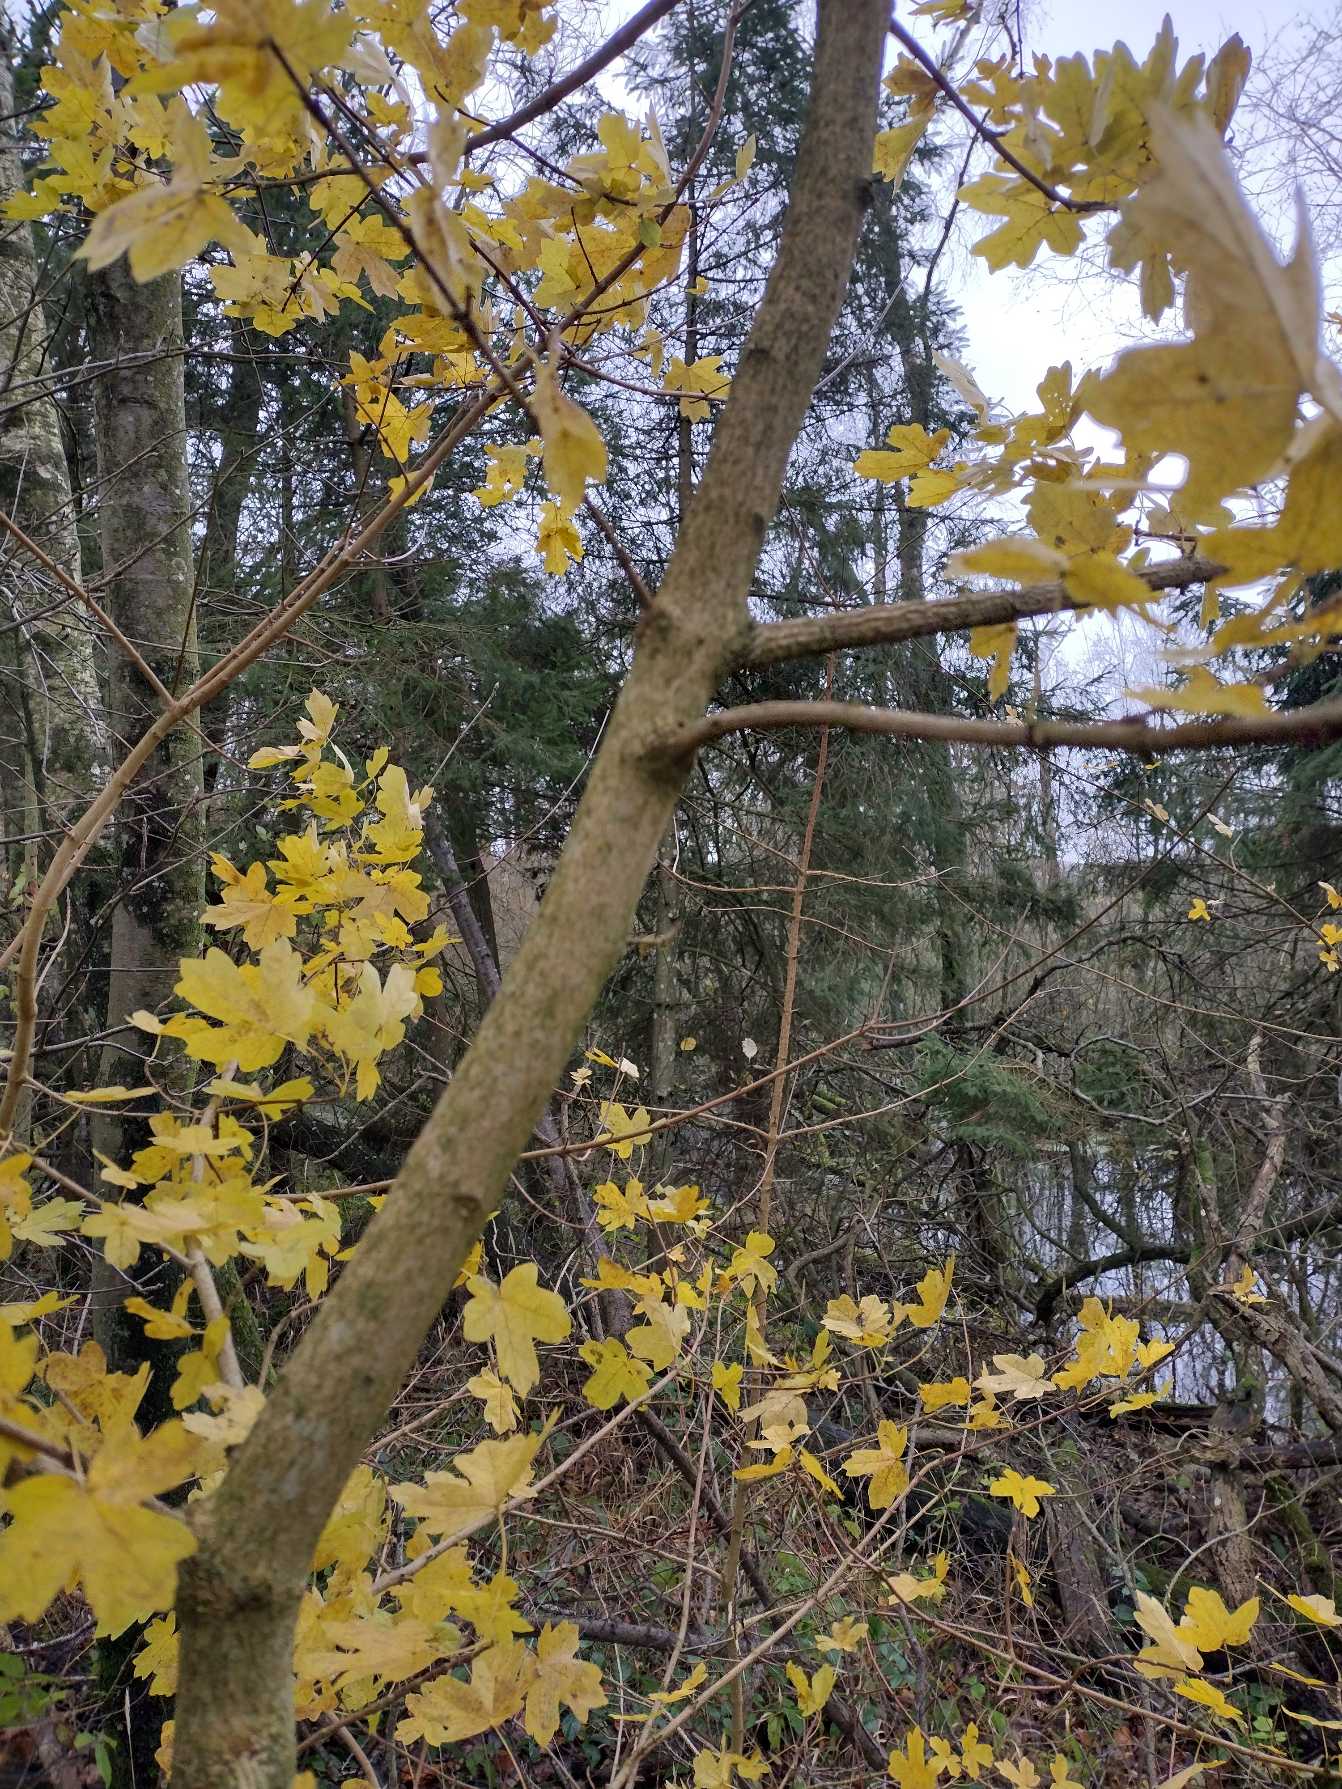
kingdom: Plantae
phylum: Tracheophyta
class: Magnoliopsida
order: Sapindales
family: Sapindaceae
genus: Acer
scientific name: Acer campestre
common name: Navr
